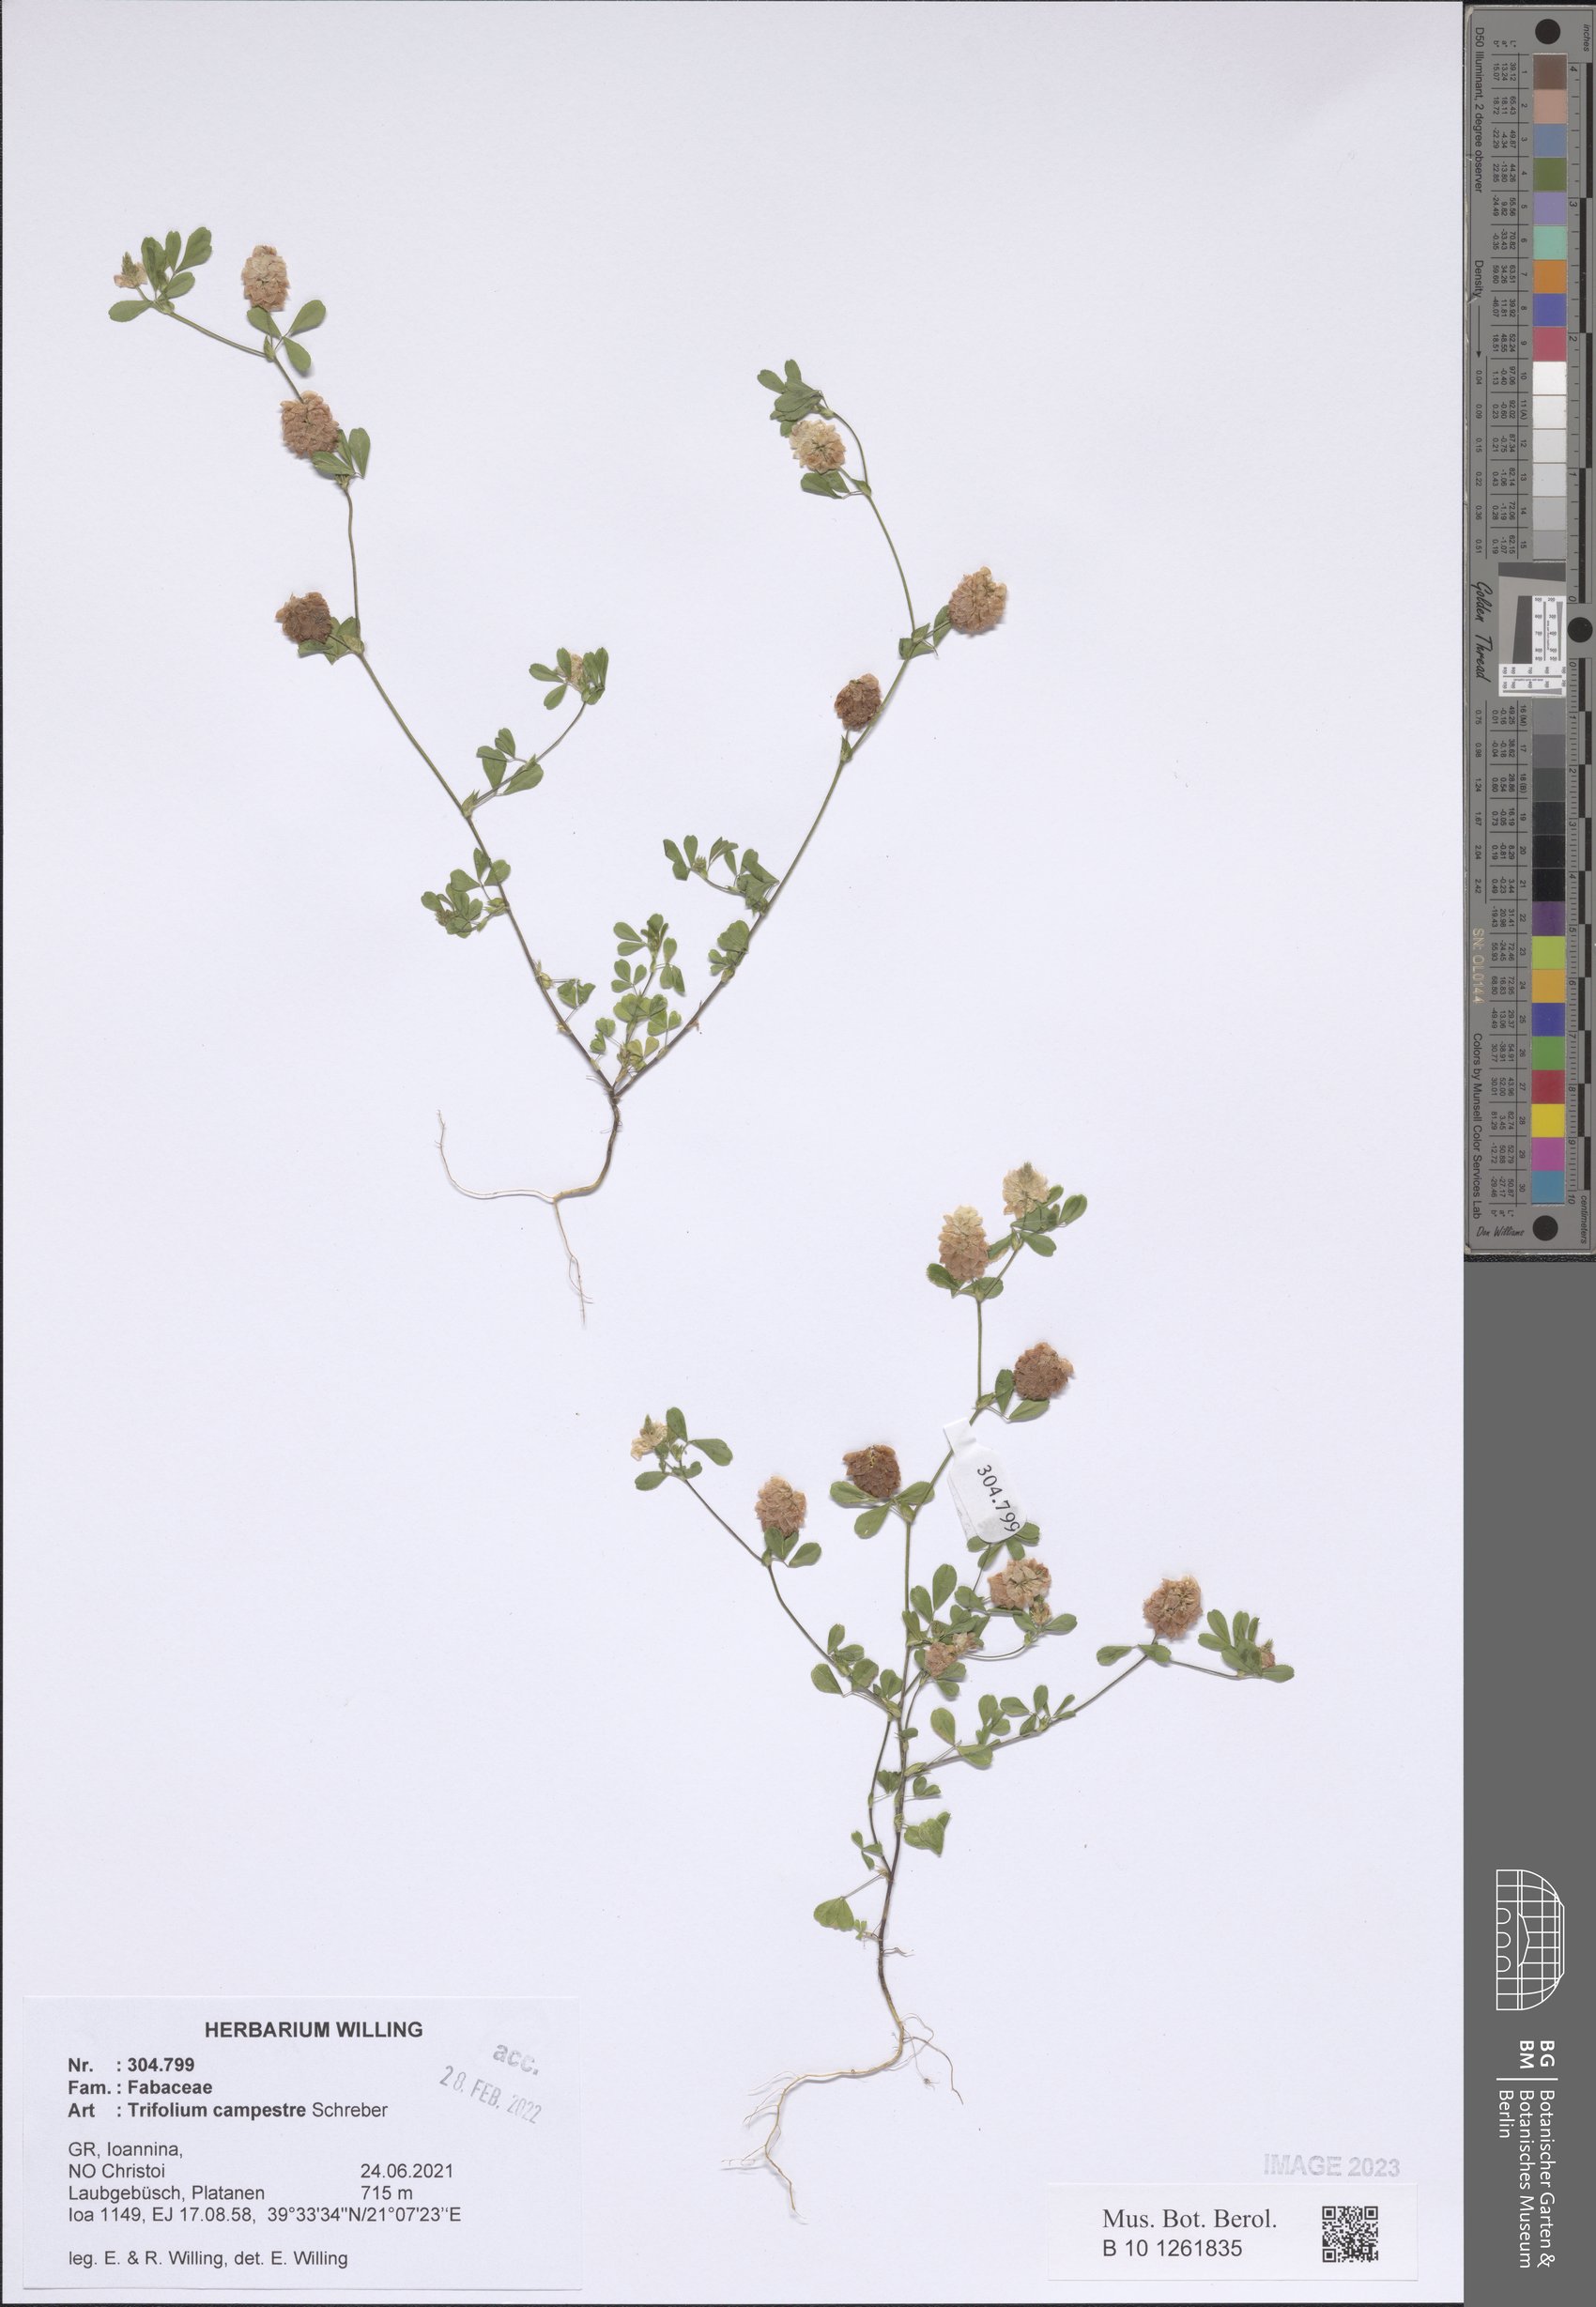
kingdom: Plantae
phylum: Tracheophyta
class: Magnoliopsida
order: Fabales
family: Fabaceae
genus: Trifolium
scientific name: Trifolium campestre
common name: Field clover
